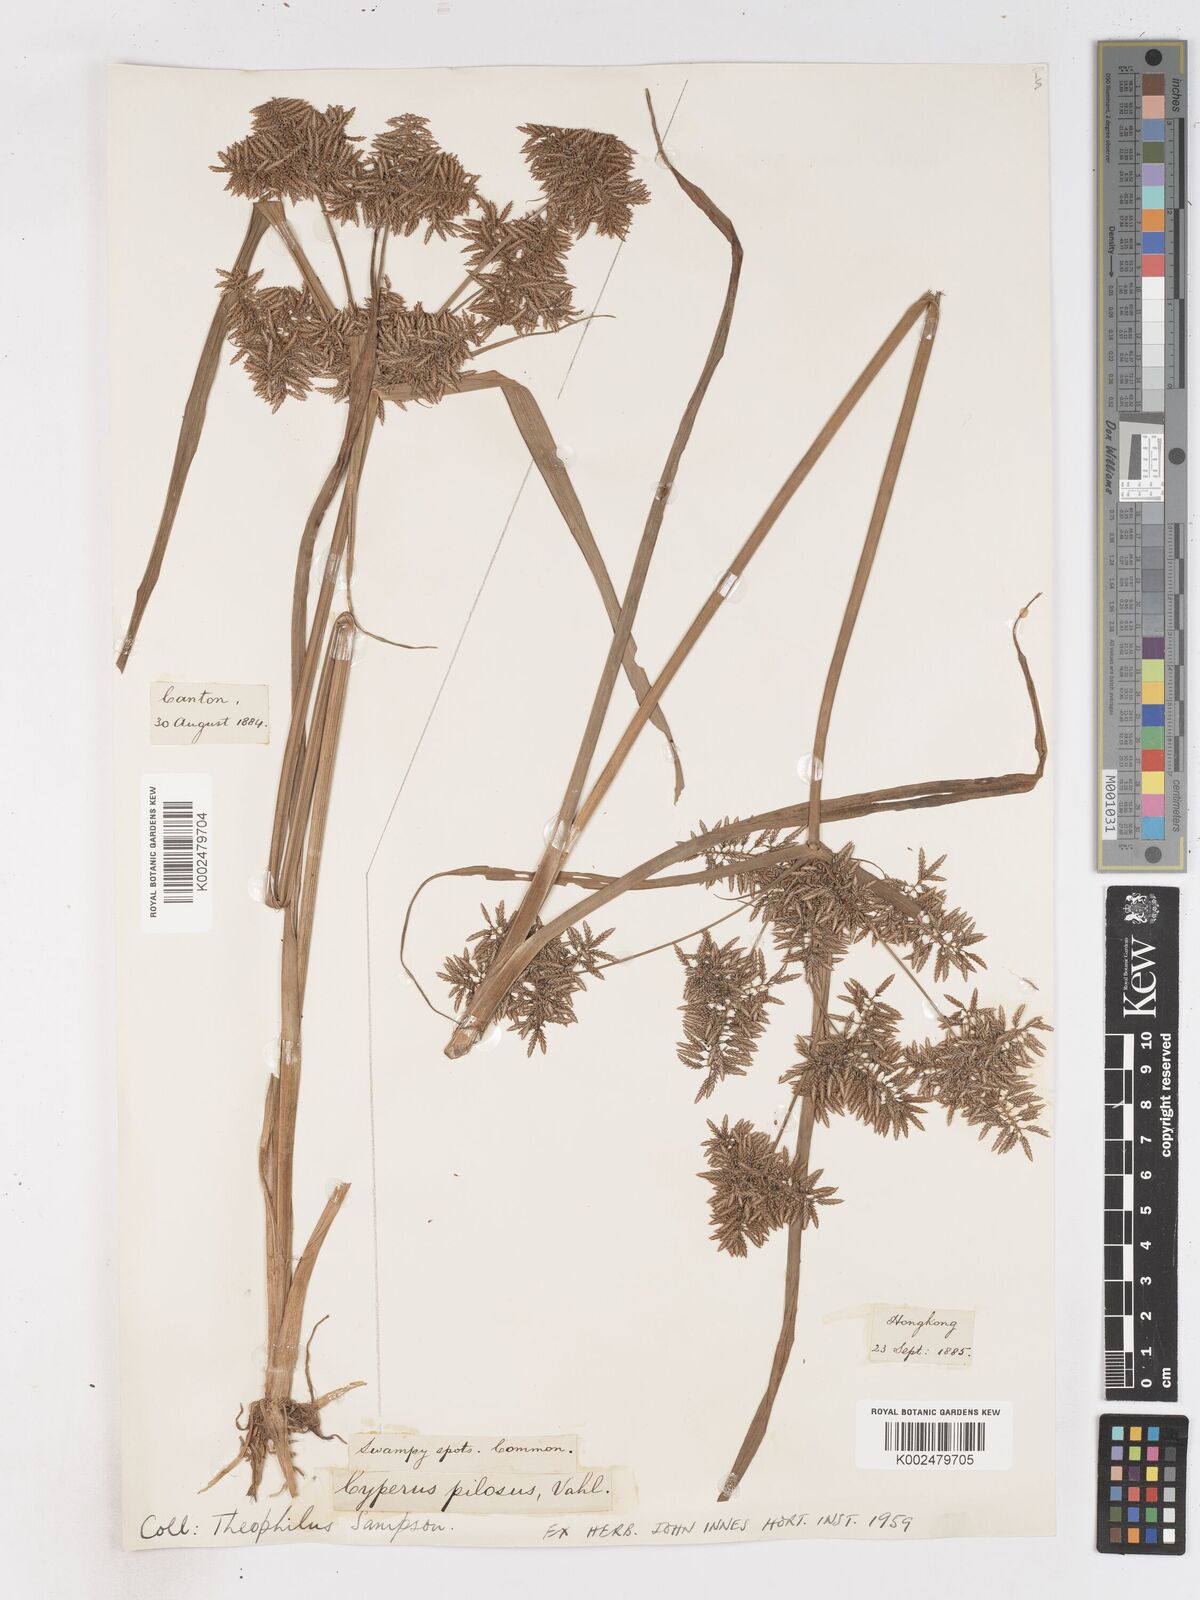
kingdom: Plantae
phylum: Tracheophyta
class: Liliopsida
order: Poales
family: Cyperaceae
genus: Cyperus
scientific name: Cyperus pilosus
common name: Fuzzy flatsedge
